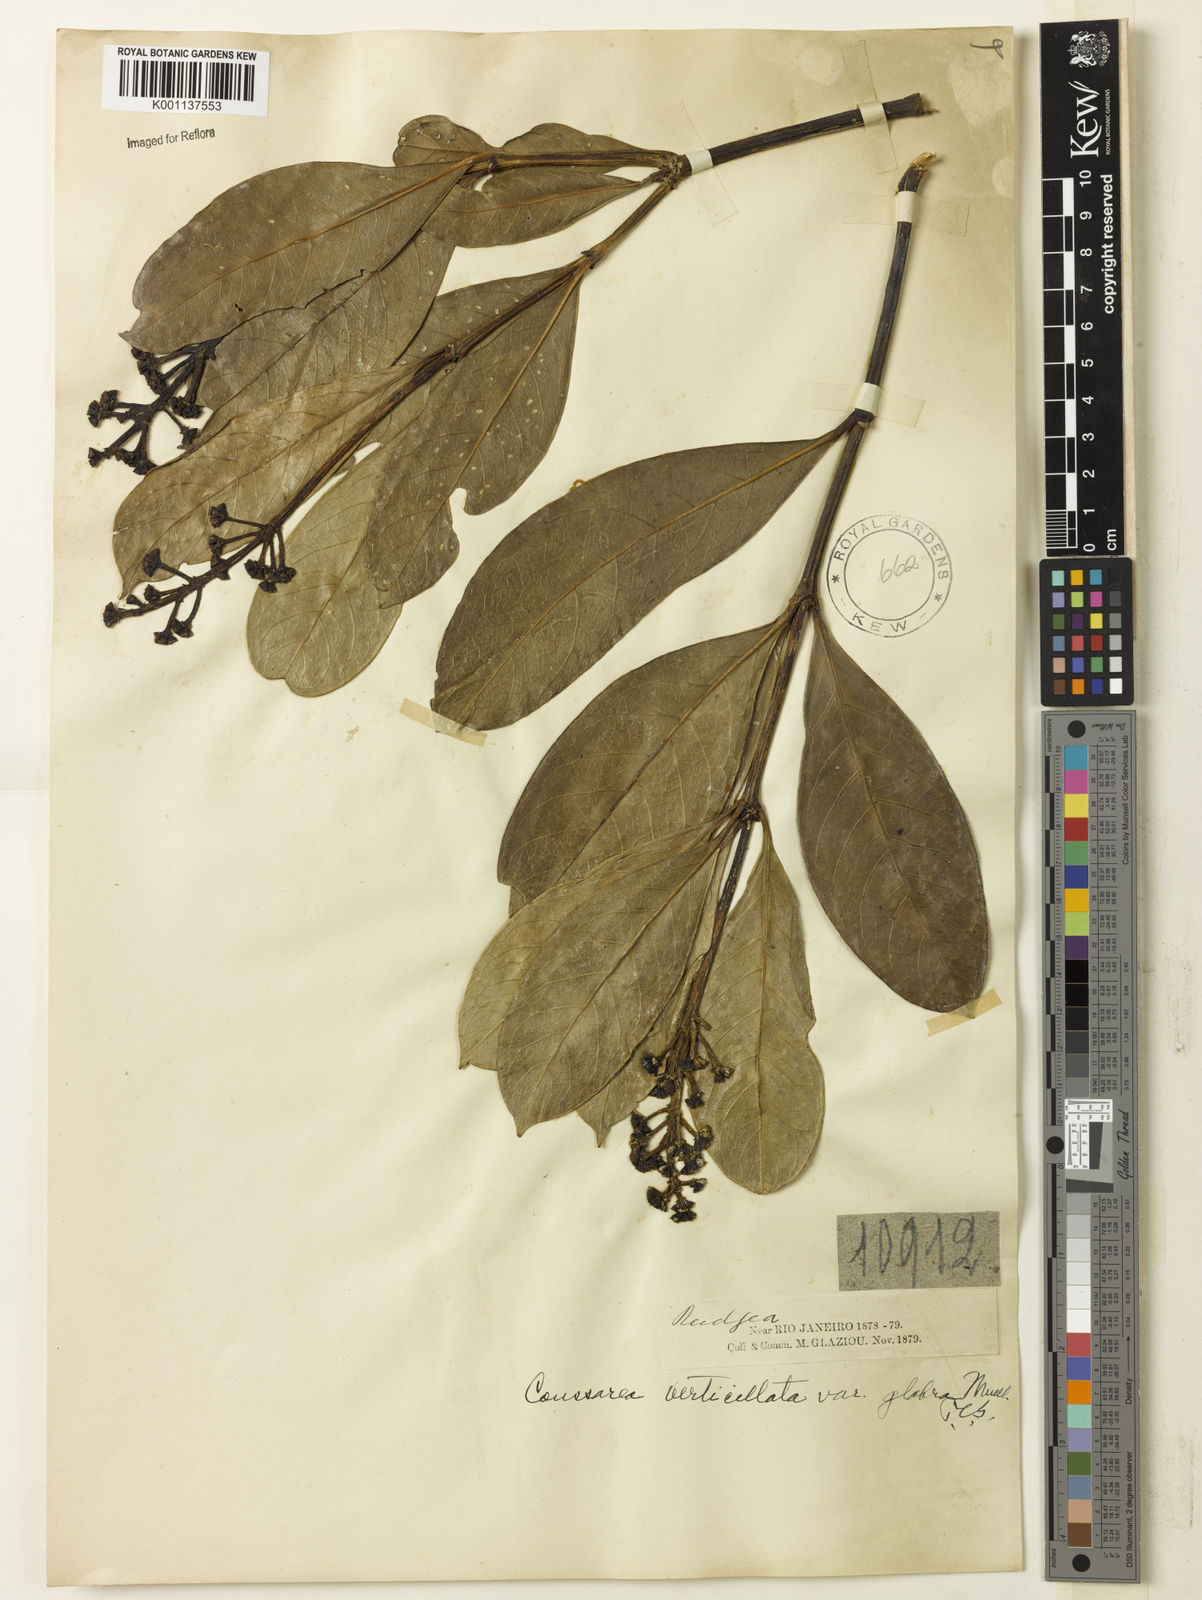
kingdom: Plantae
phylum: Tracheophyta
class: Magnoliopsida
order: Gentianales
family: Rubiaceae
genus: Coussarea
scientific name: Coussarea
